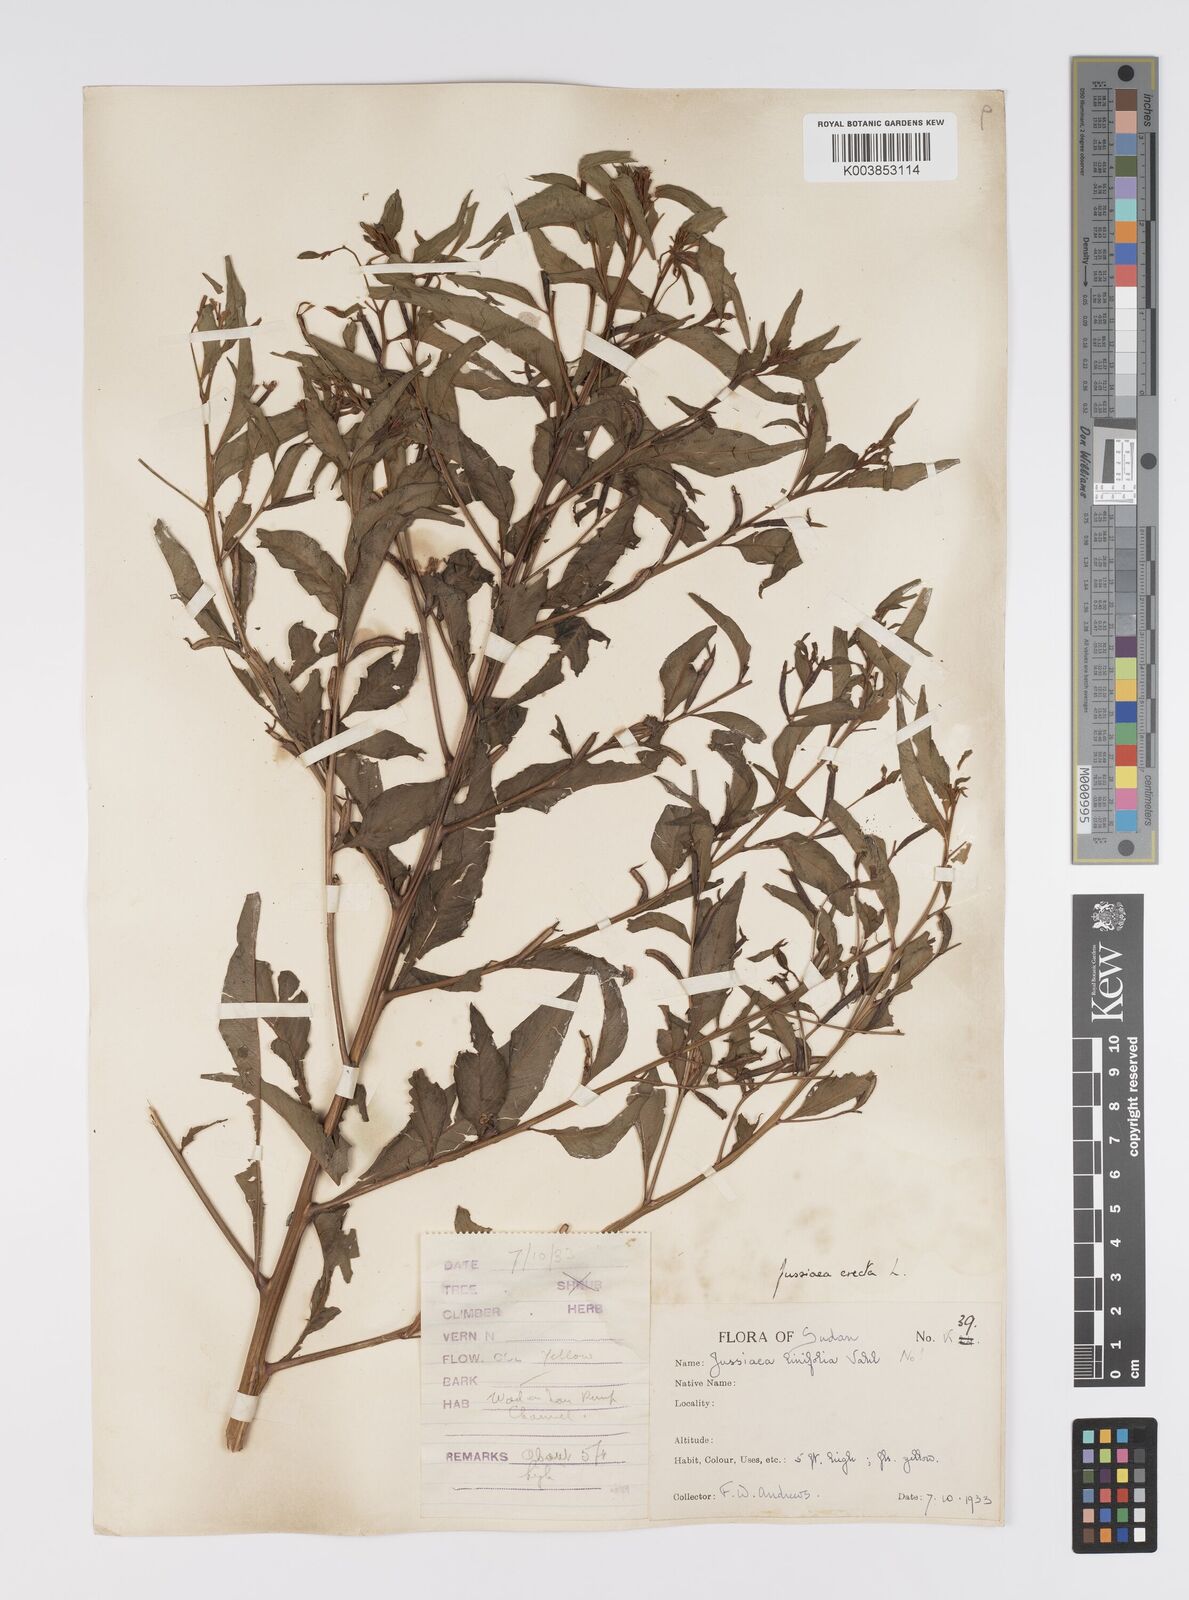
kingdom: Plantae
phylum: Tracheophyta
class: Magnoliopsida
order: Myrtales
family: Onagraceae
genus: Ludwigia
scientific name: Ludwigia erecta
